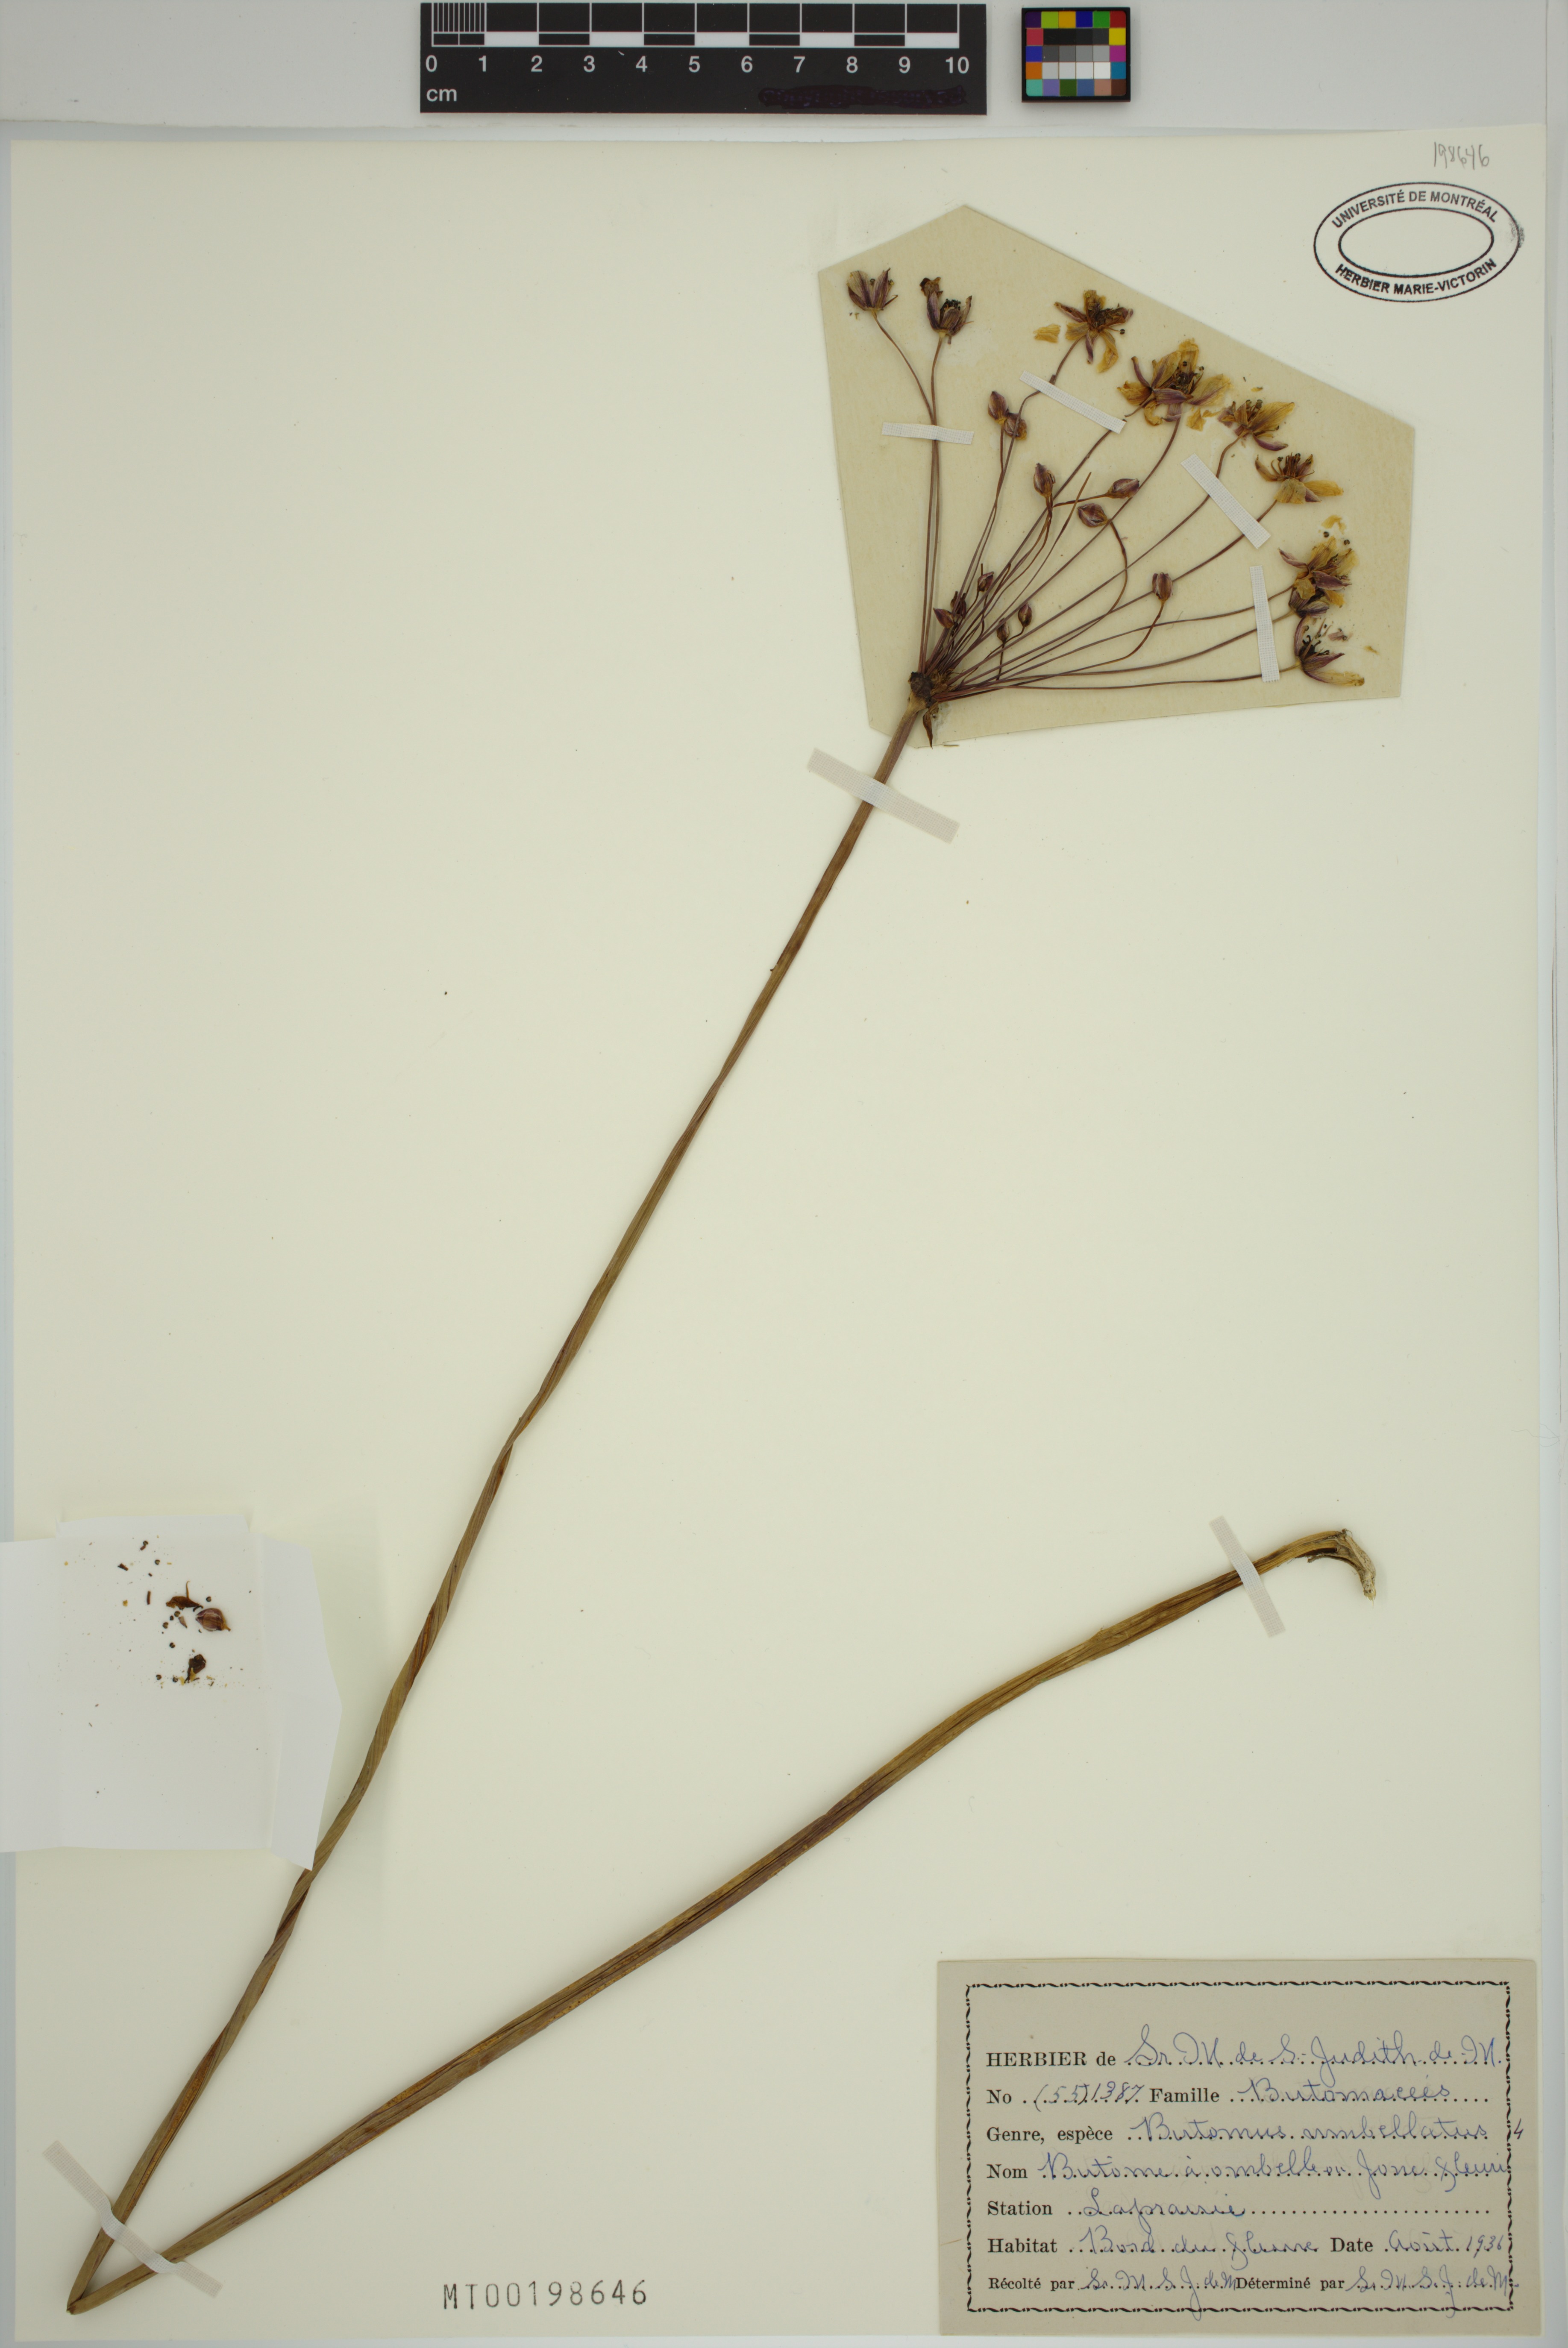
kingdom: Plantae
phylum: Tracheophyta
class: Liliopsida
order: Alismatales
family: Butomaceae
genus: Butomus
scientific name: Butomus umbellatus
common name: Flowering-rush
